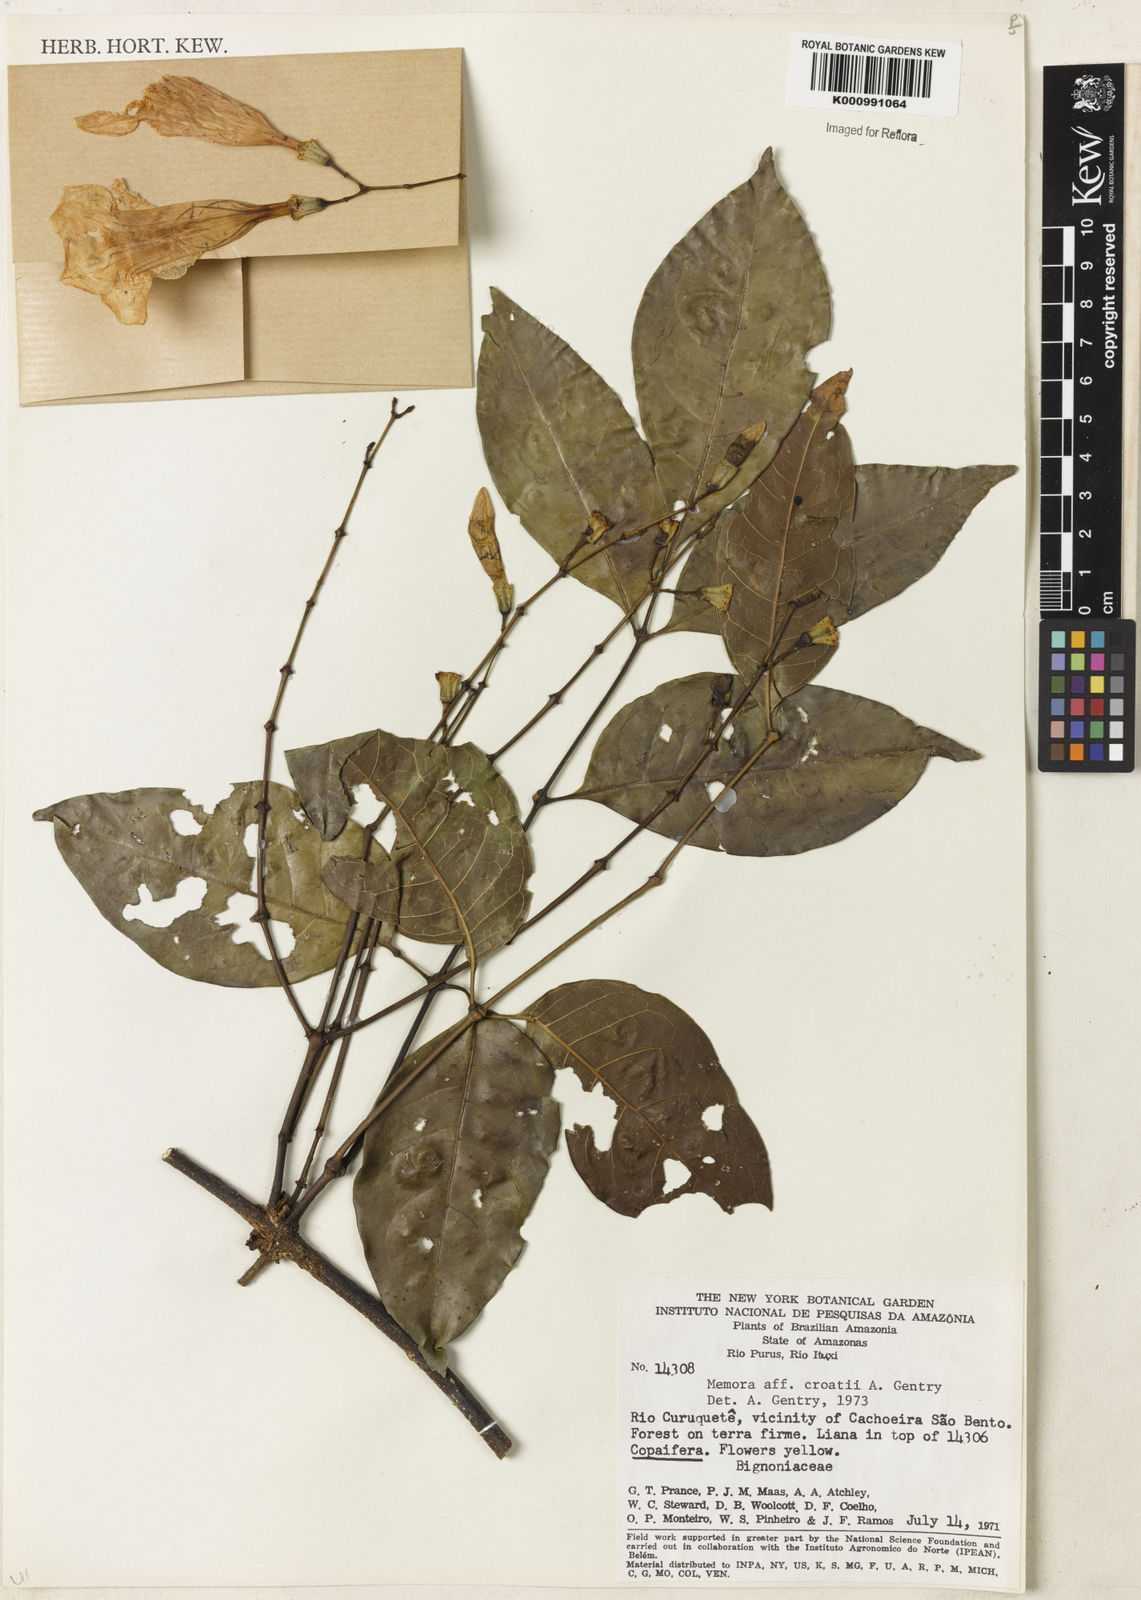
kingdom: Plantae
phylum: Tracheophyta
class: Magnoliopsida
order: Lamiales
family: Bignoniaceae
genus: Adenocalymma
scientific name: Adenocalymma croatii
